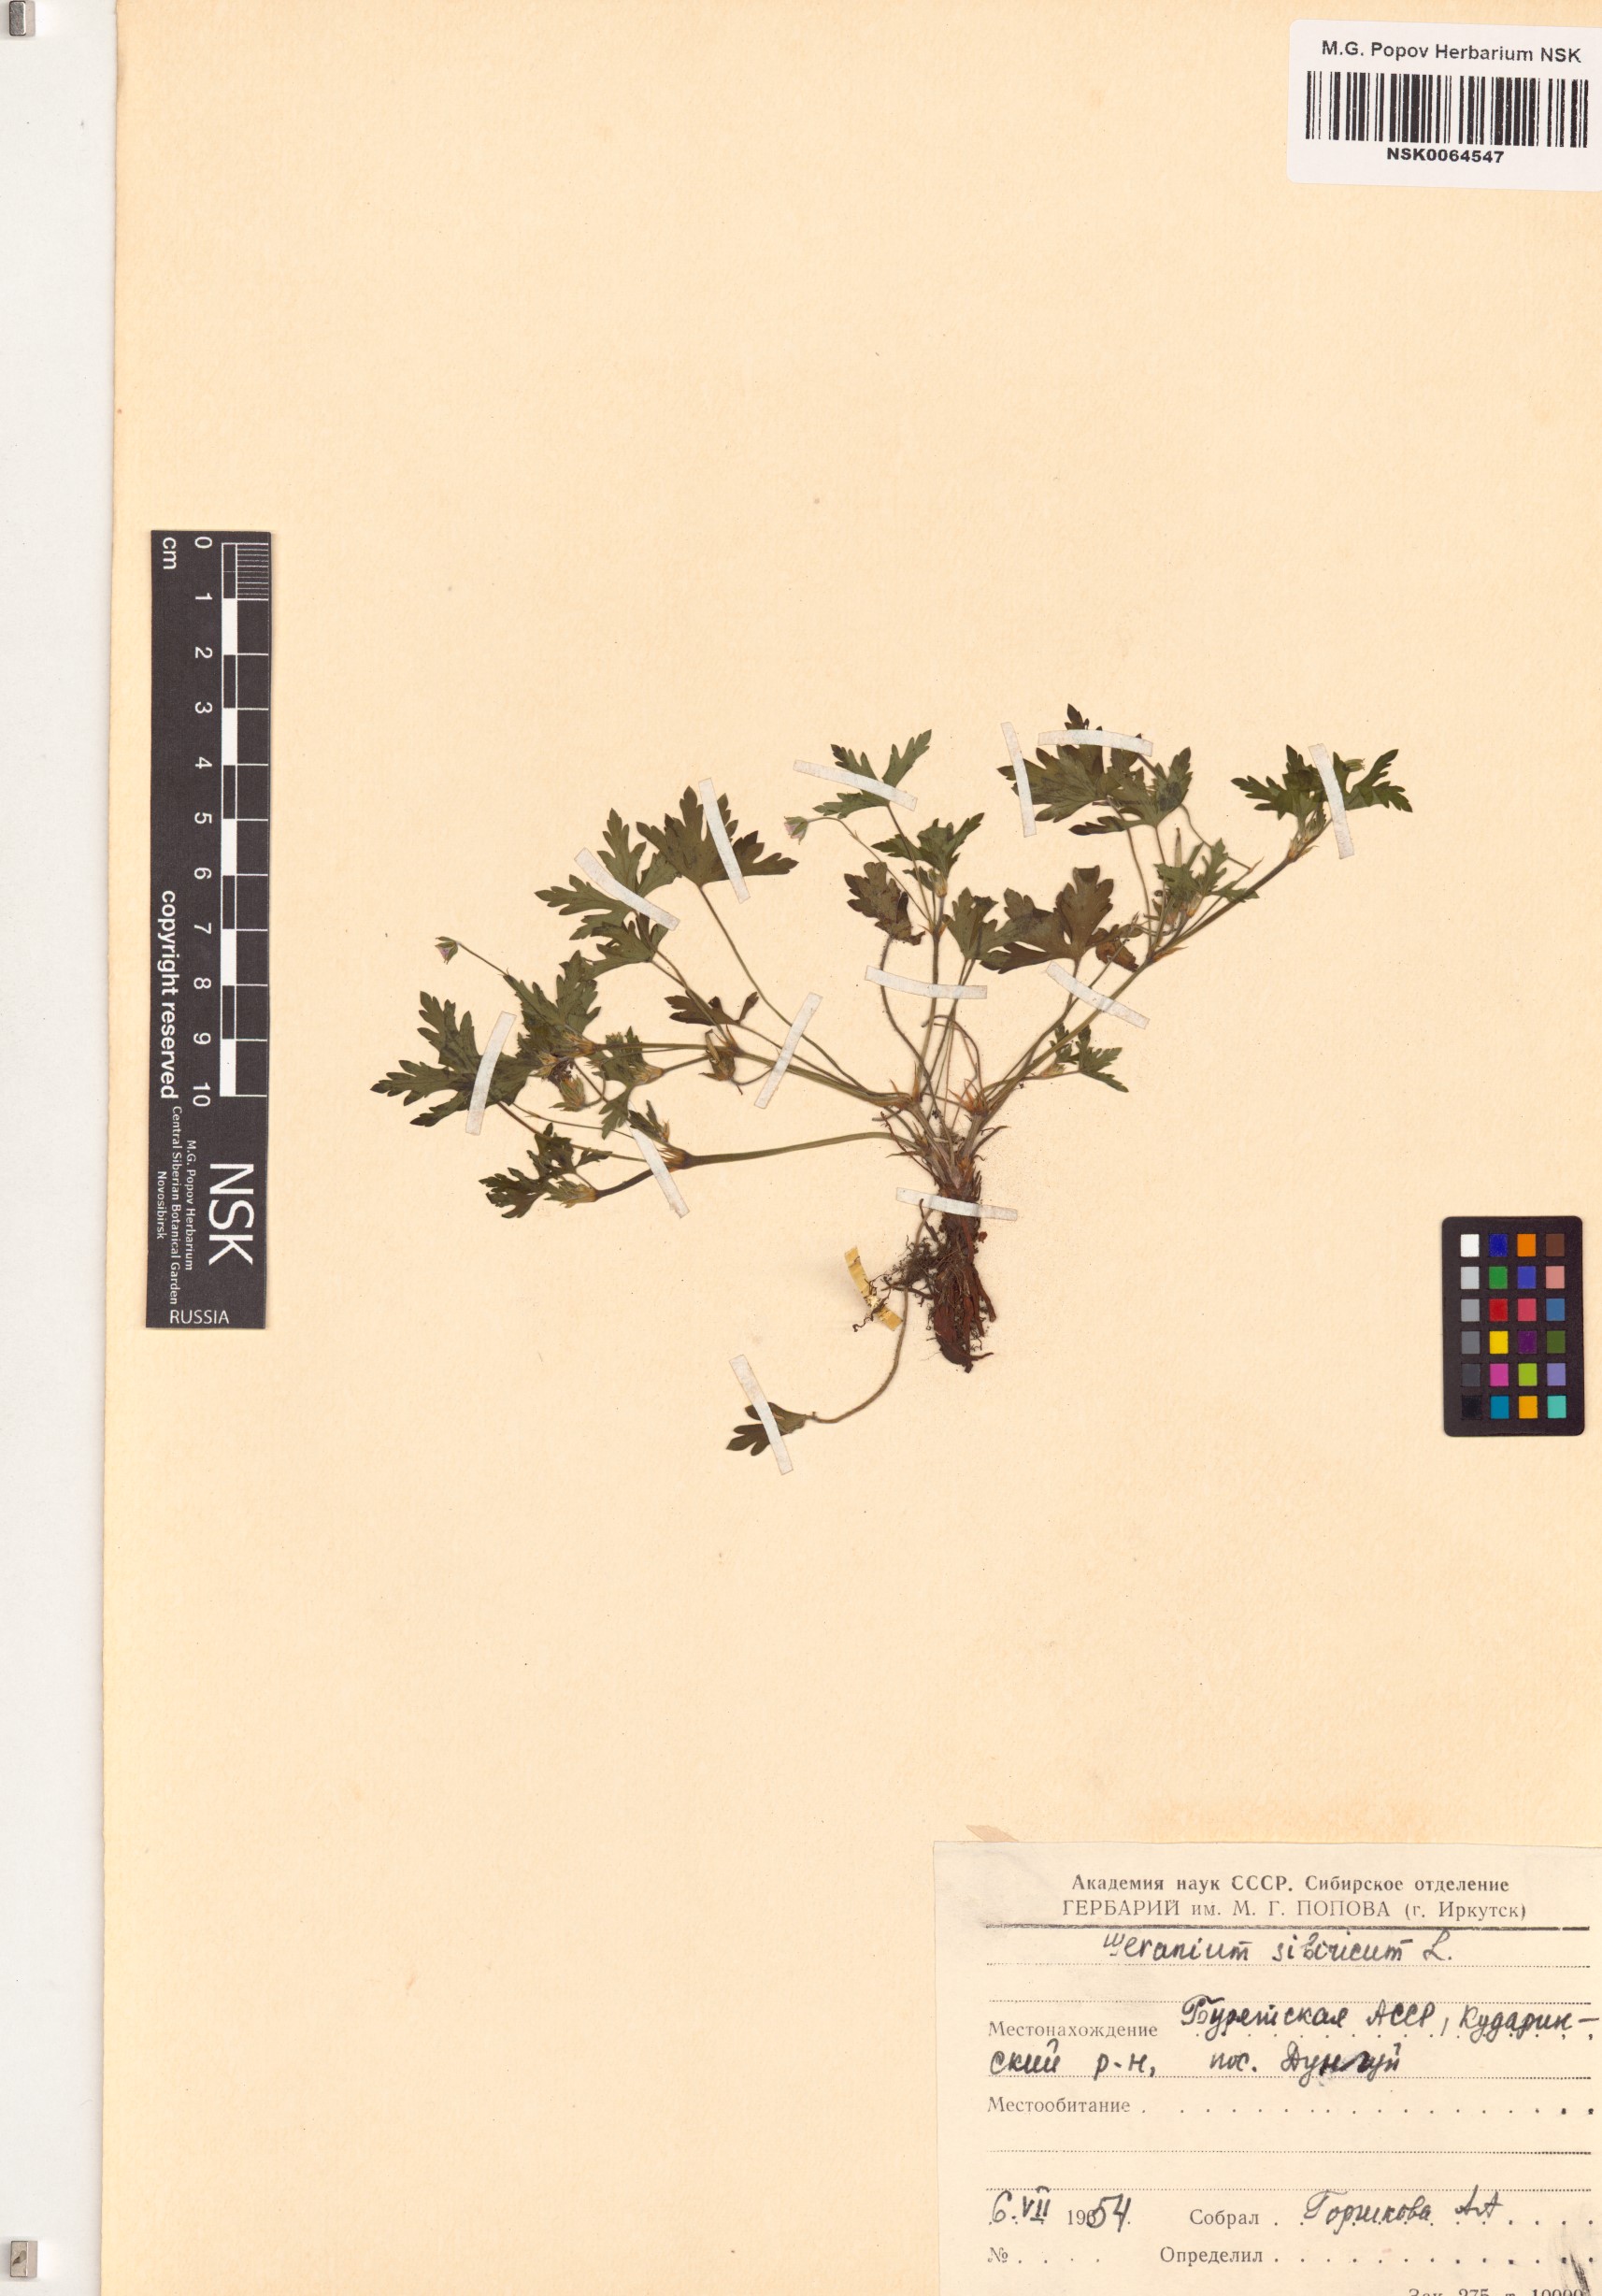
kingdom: Plantae
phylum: Tracheophyta
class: Magnoliopsida
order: Geraniales
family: Geraniaceae
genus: Geranium
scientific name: Geranium sibiricum
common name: Siberian crane's-bill
